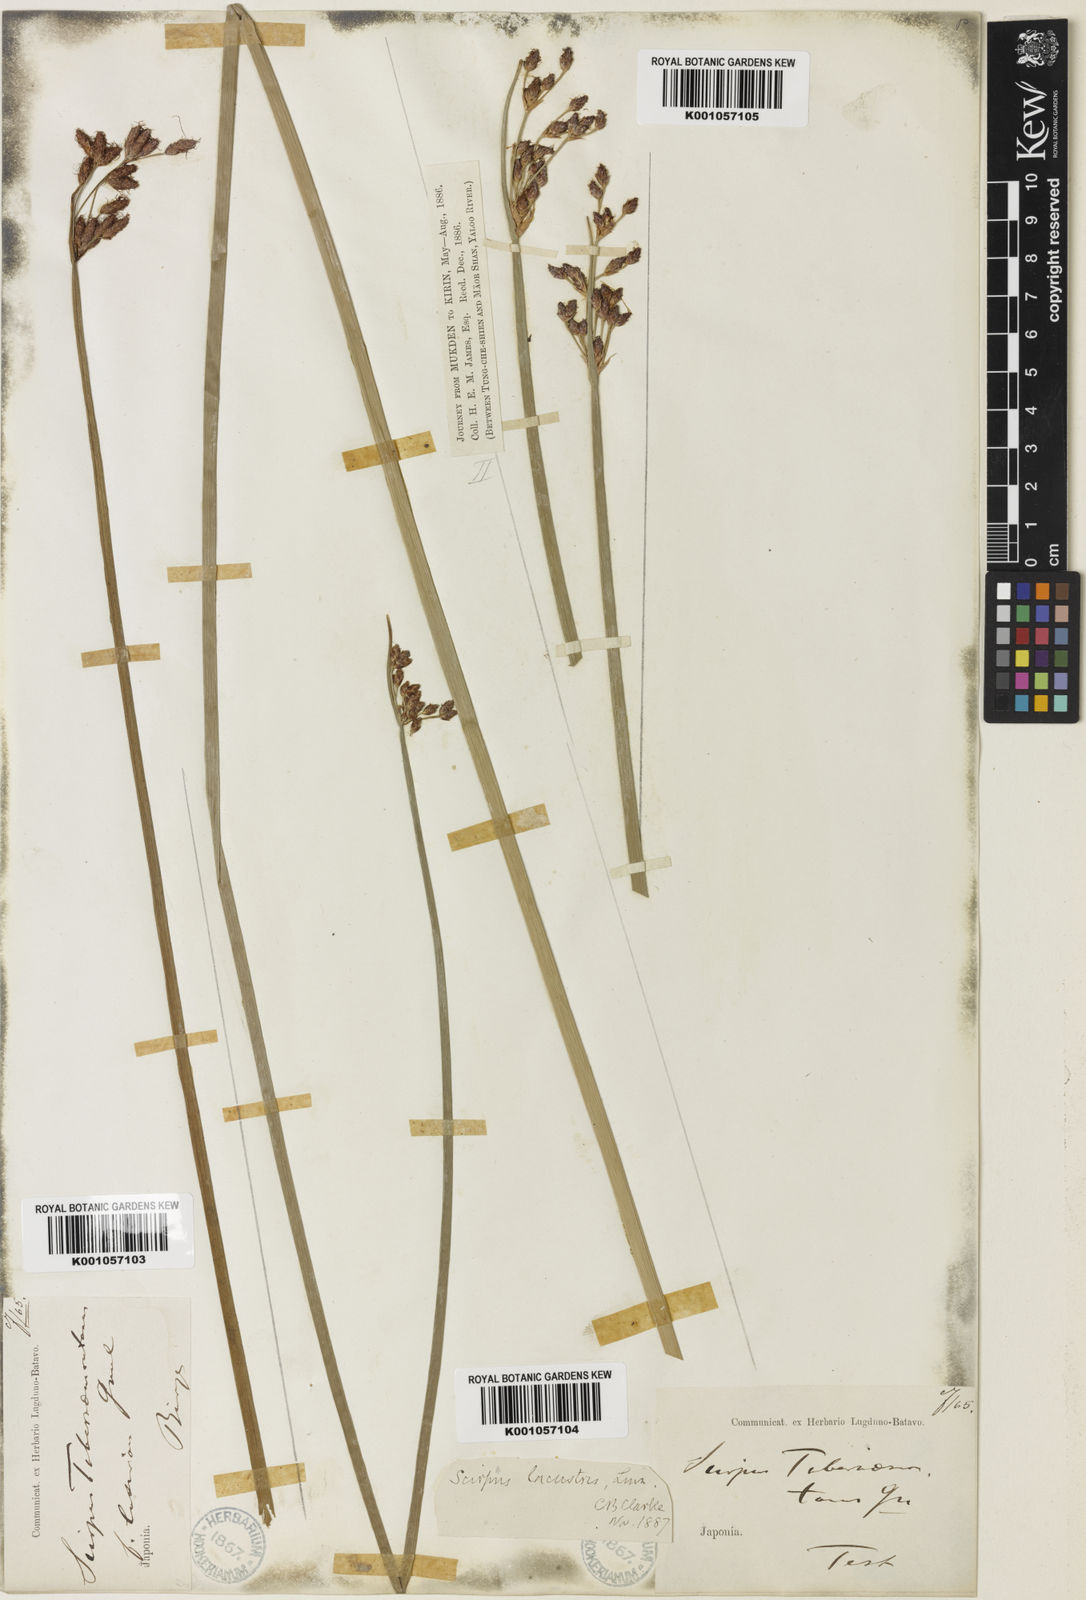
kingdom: Plantae
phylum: Tracheophyta
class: Liliopsida
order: Poales
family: Cyperaceae
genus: Schoenoplectus
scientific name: Schoenoplectus lacustris
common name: Common club-rush
